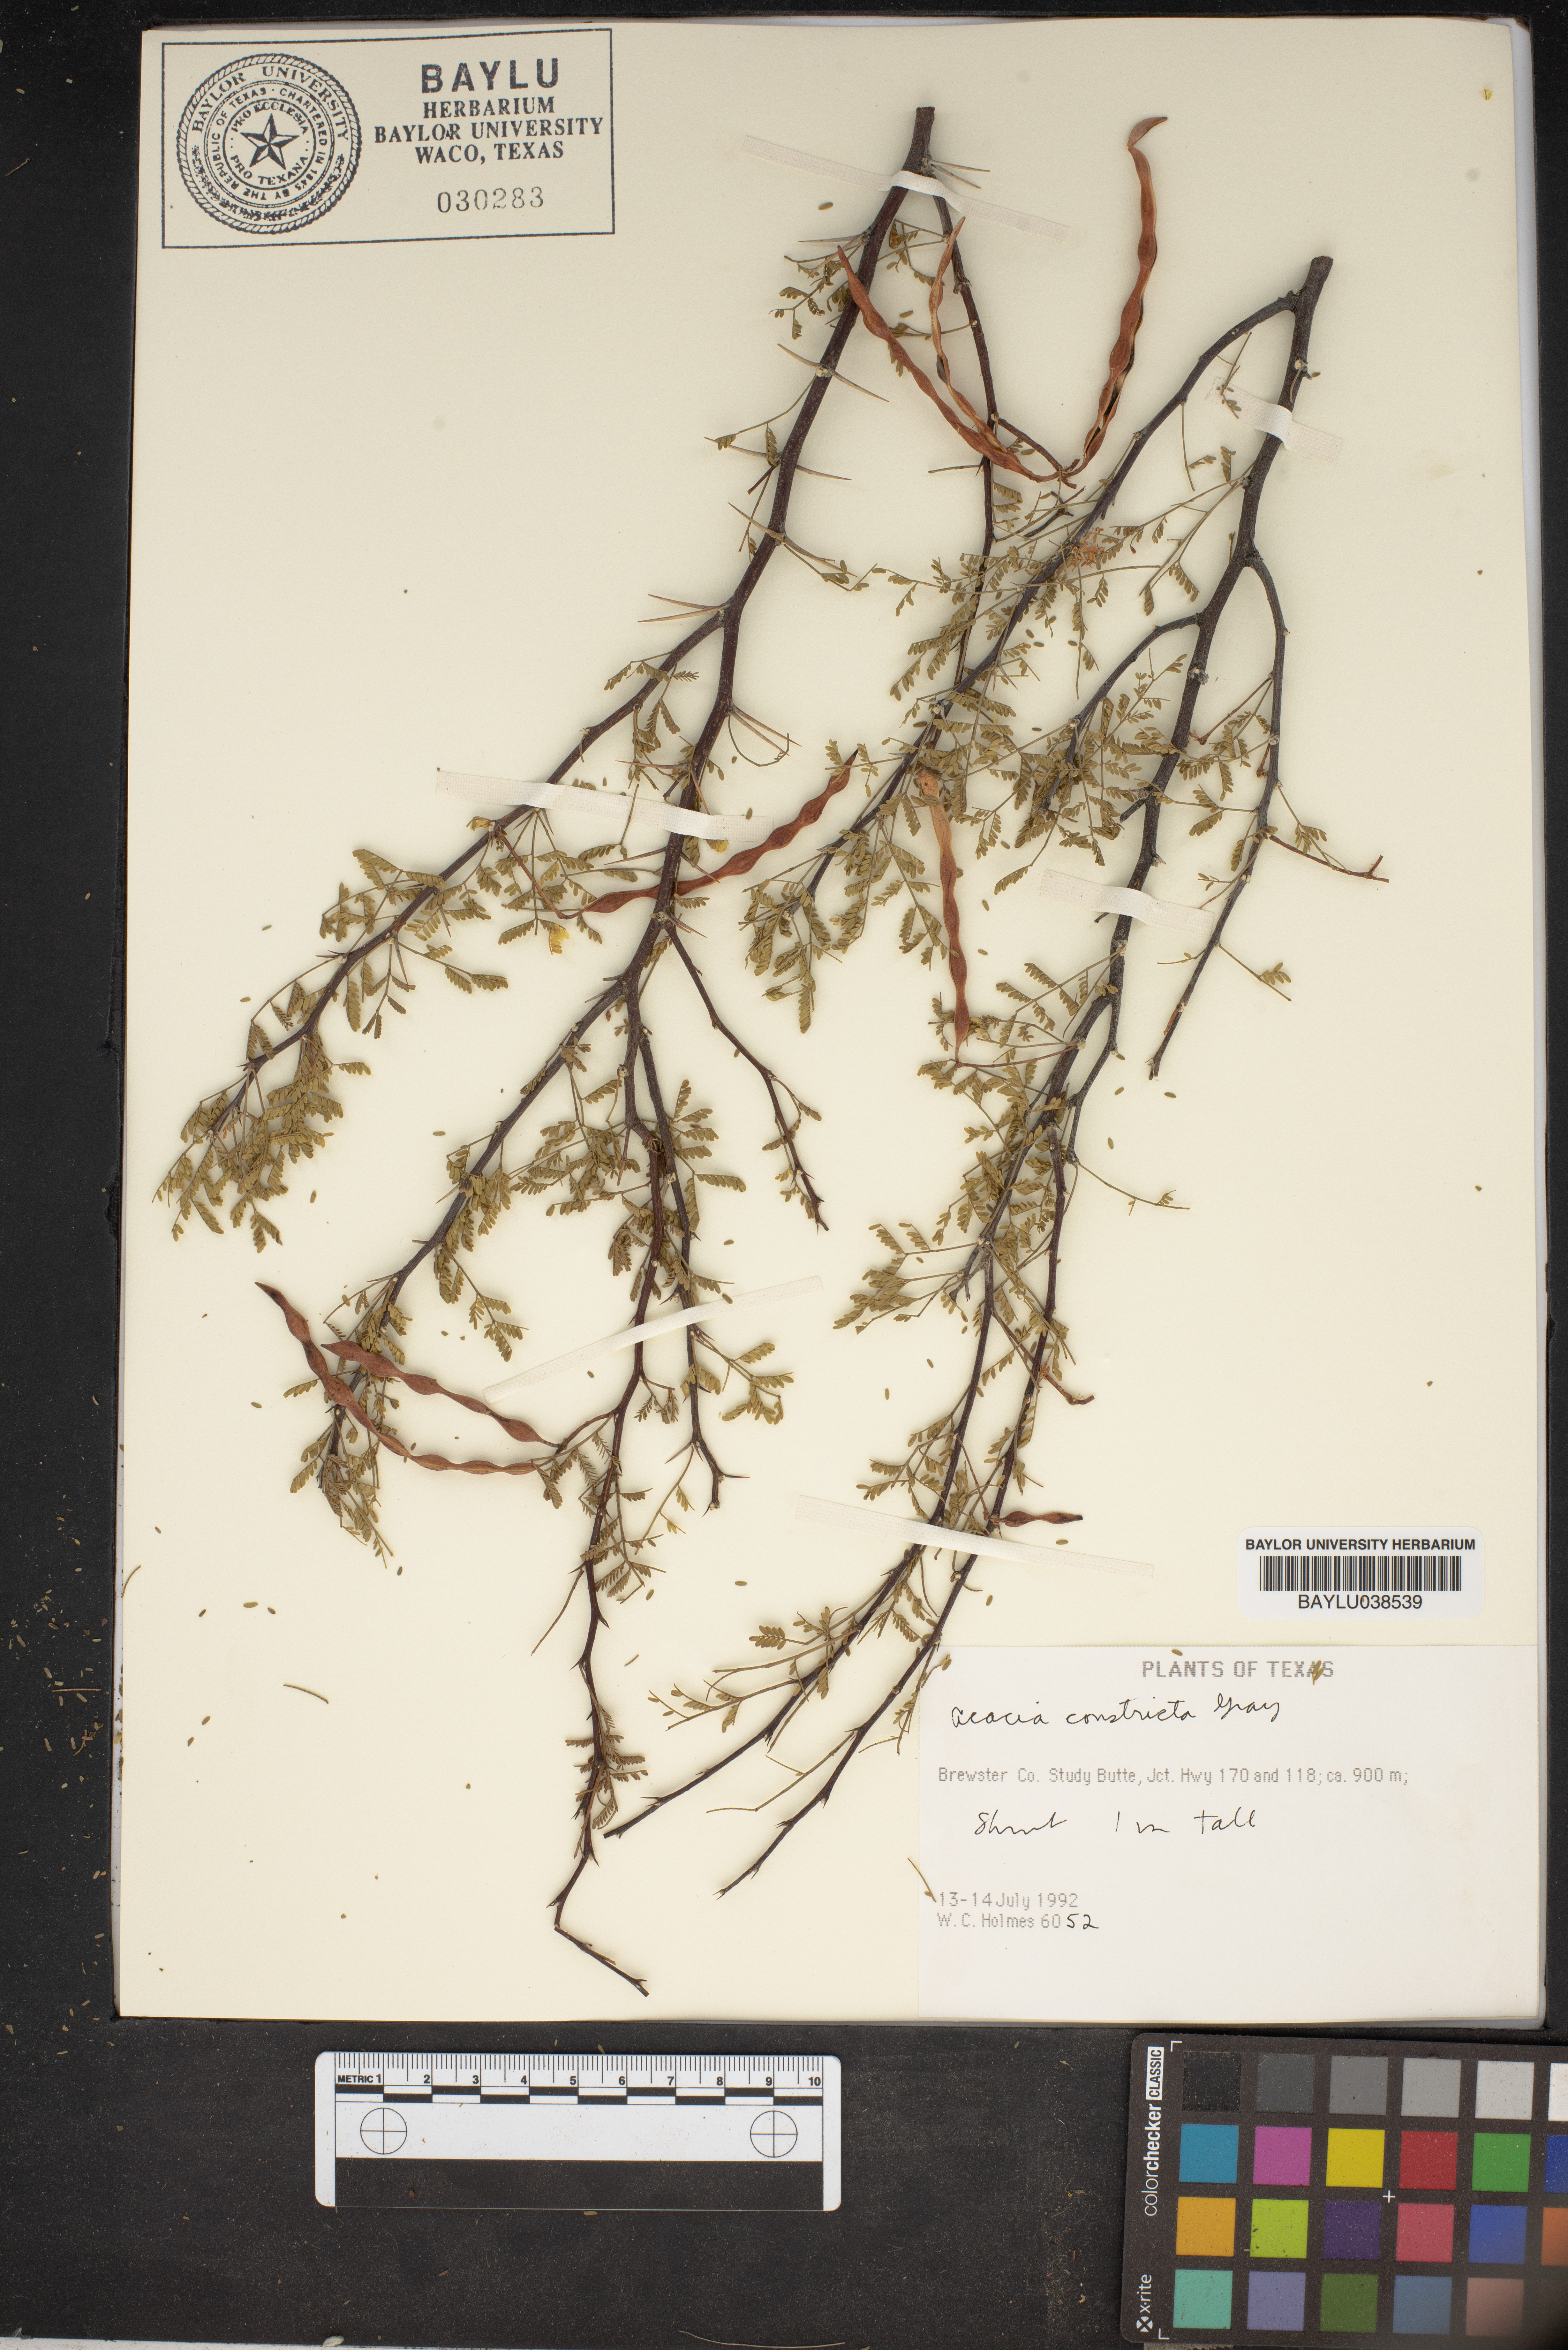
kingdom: Plantae
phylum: Tracheophyta
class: Magnoliopsida
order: Fabales
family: Fabaceae
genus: Vachellia
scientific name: Vachellia constricta
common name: Mescat acacia
